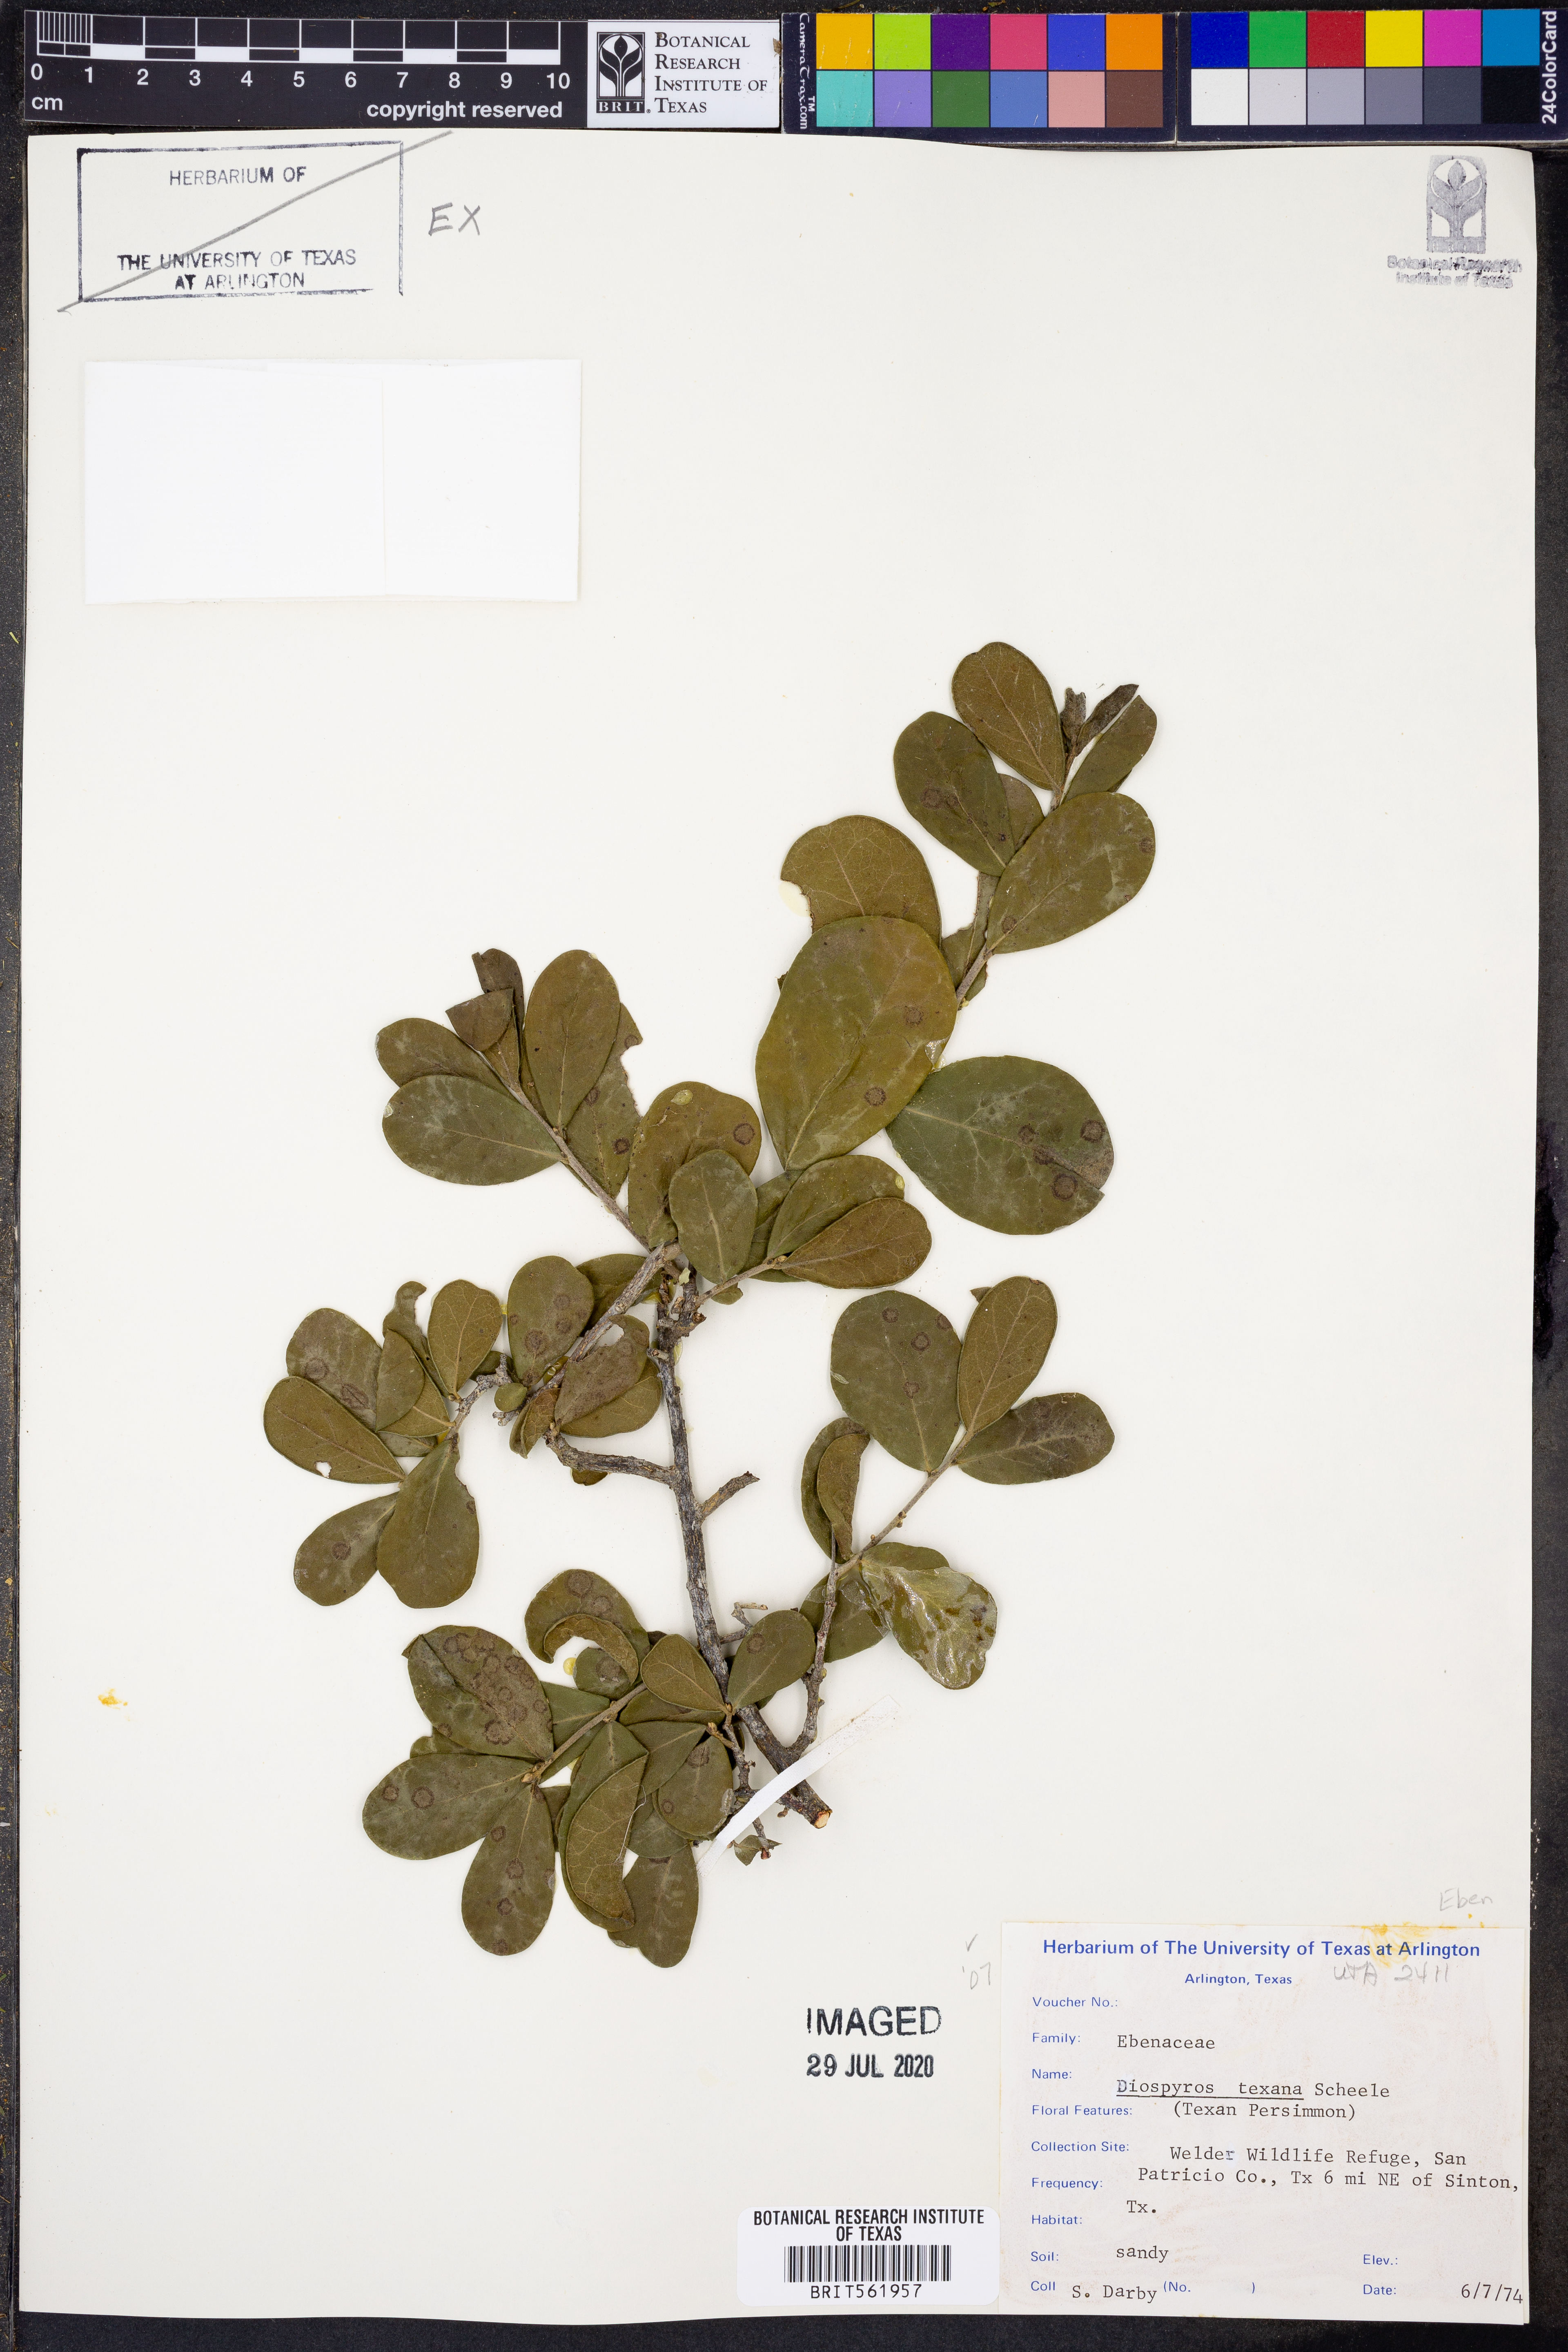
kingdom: Plantae
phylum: Tracheophyta
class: Magnoliopsida
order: Ericales
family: Ebenaceae
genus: Diospyros
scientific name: Diospyros virginiana
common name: Persimmon
